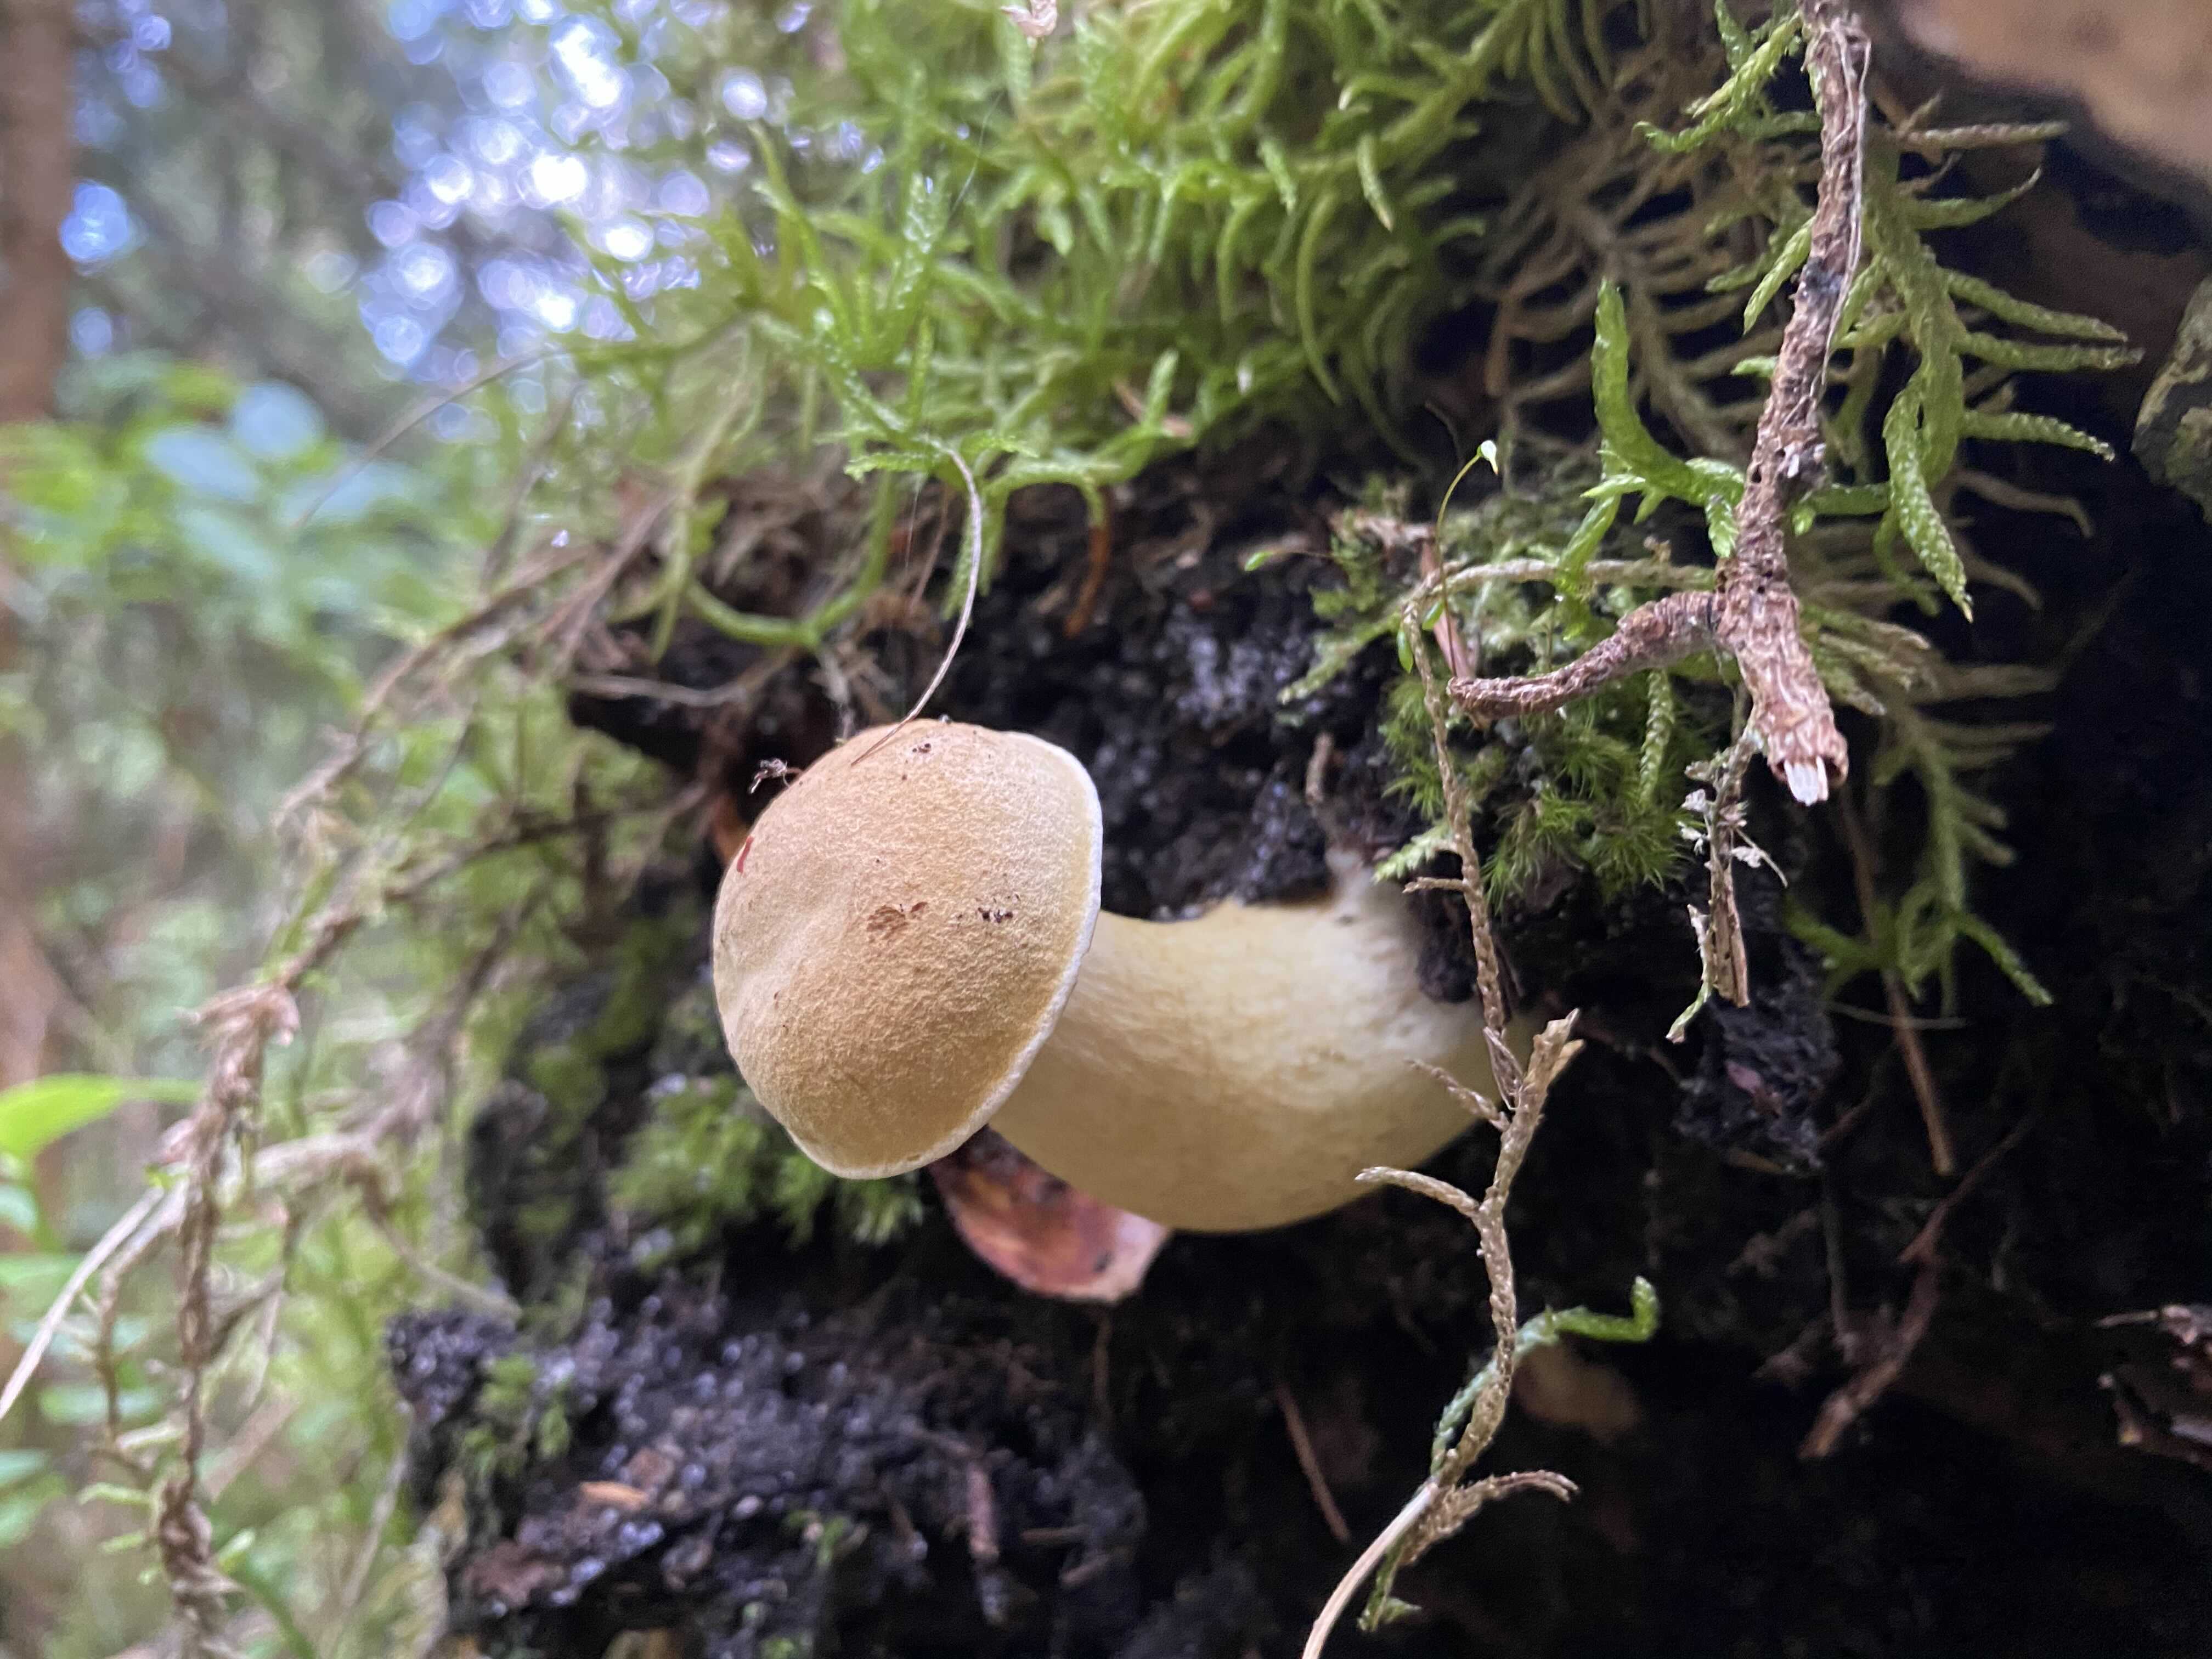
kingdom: Fungi
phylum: Basidiomycota
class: Agaricomycetes
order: Boletales
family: Boletaceae
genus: Tylopilus
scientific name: Tylopilus felleus
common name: galderørhat
